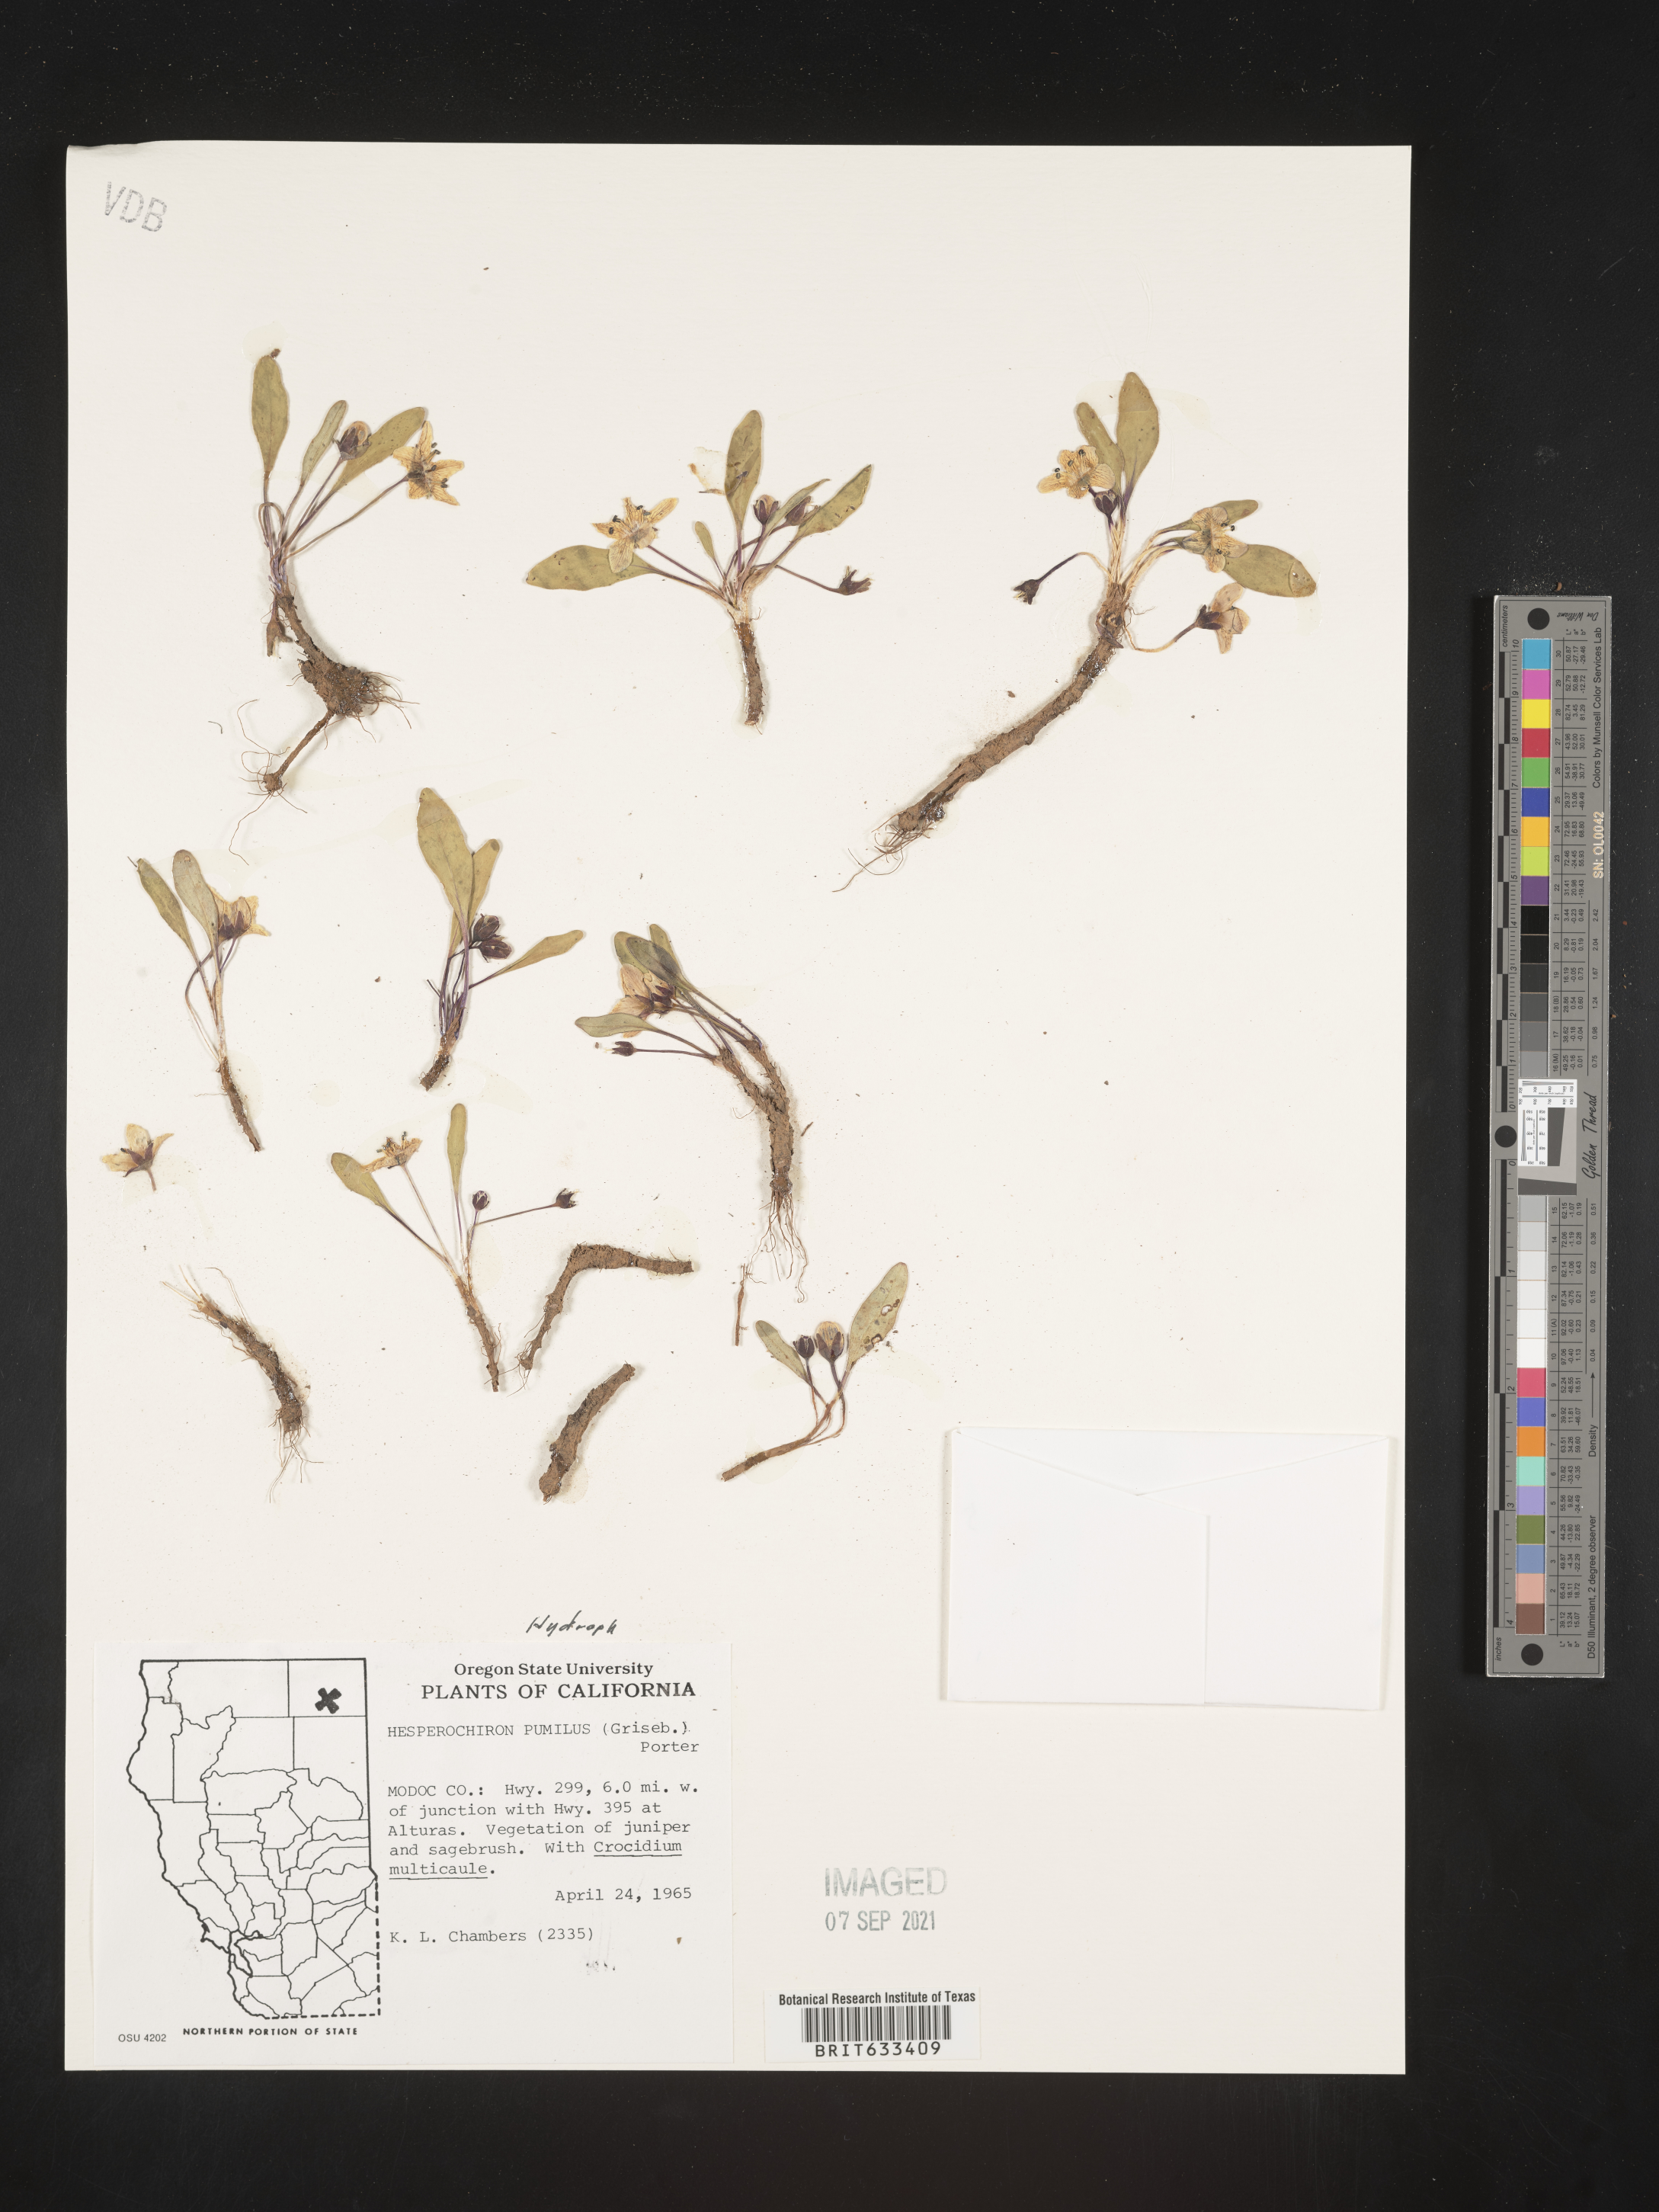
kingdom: Plantae
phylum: Tracheophyta
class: Magnoliopsida
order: Boraginales
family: Hydrophyllaceae
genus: Hesperochiron
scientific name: Hesperochiron pumilus
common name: Dwarf hesperochiron
